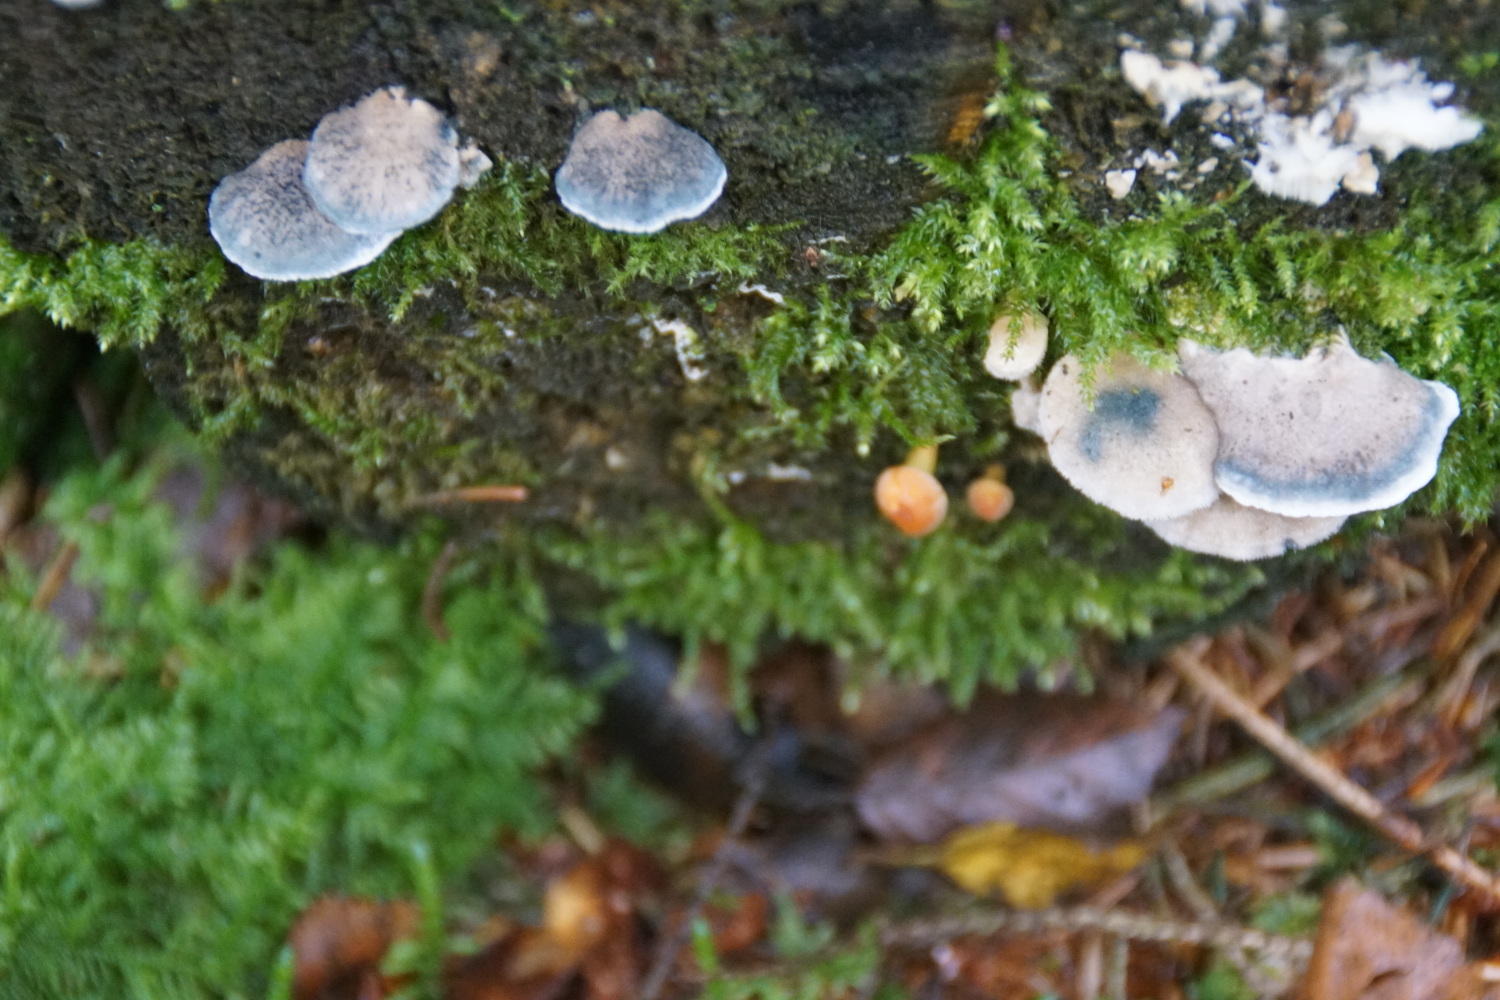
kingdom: Fungi
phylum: Basidiomycota
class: Agaricomycetes
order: Polyporales
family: Polyporaceae
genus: Cyanosporus
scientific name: Cyanosporus caesius
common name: blålig kødporesvamp
